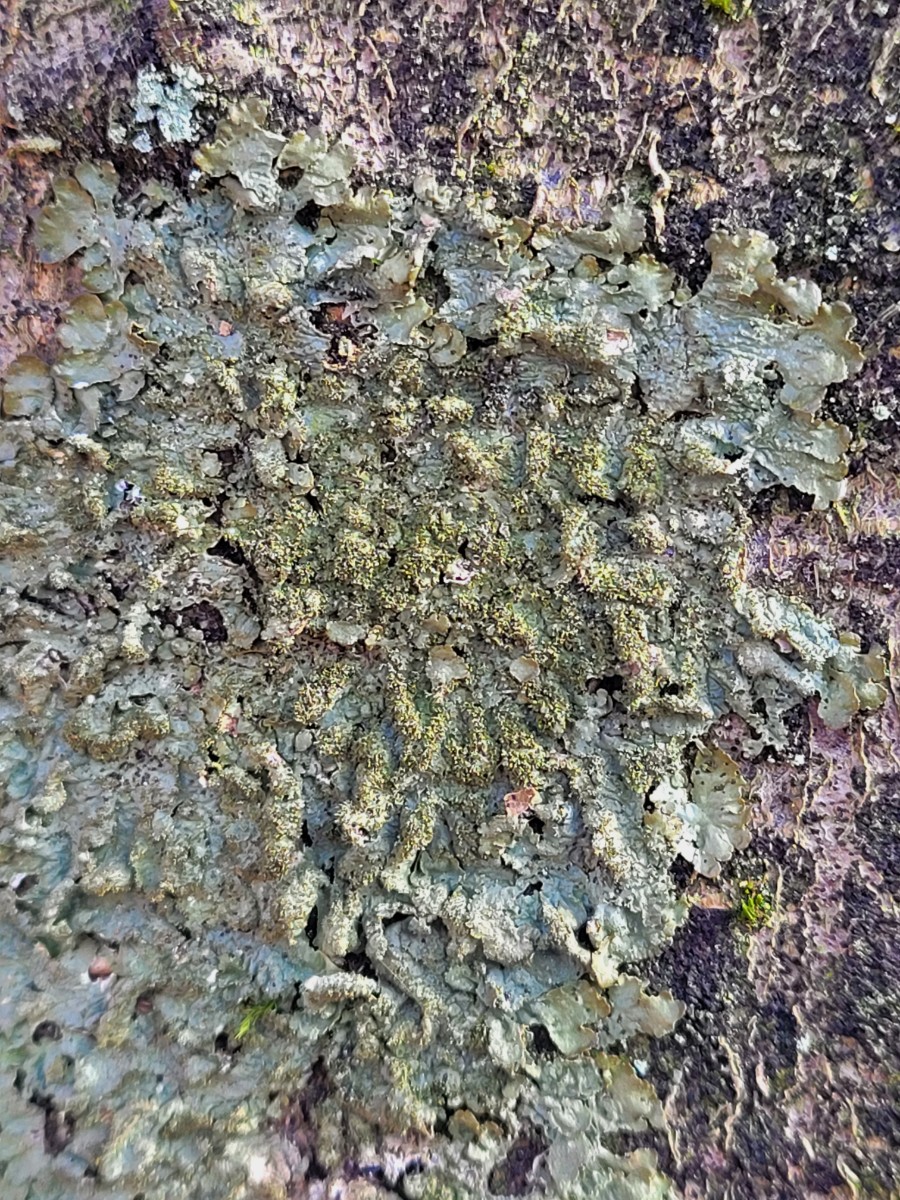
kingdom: Fungi
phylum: Ascomycota
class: Lecanoromycetes
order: Lecanorales
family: Parmeliaceae
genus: Melanelixia
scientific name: Melanelixia glabratula
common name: glinsende skållav
